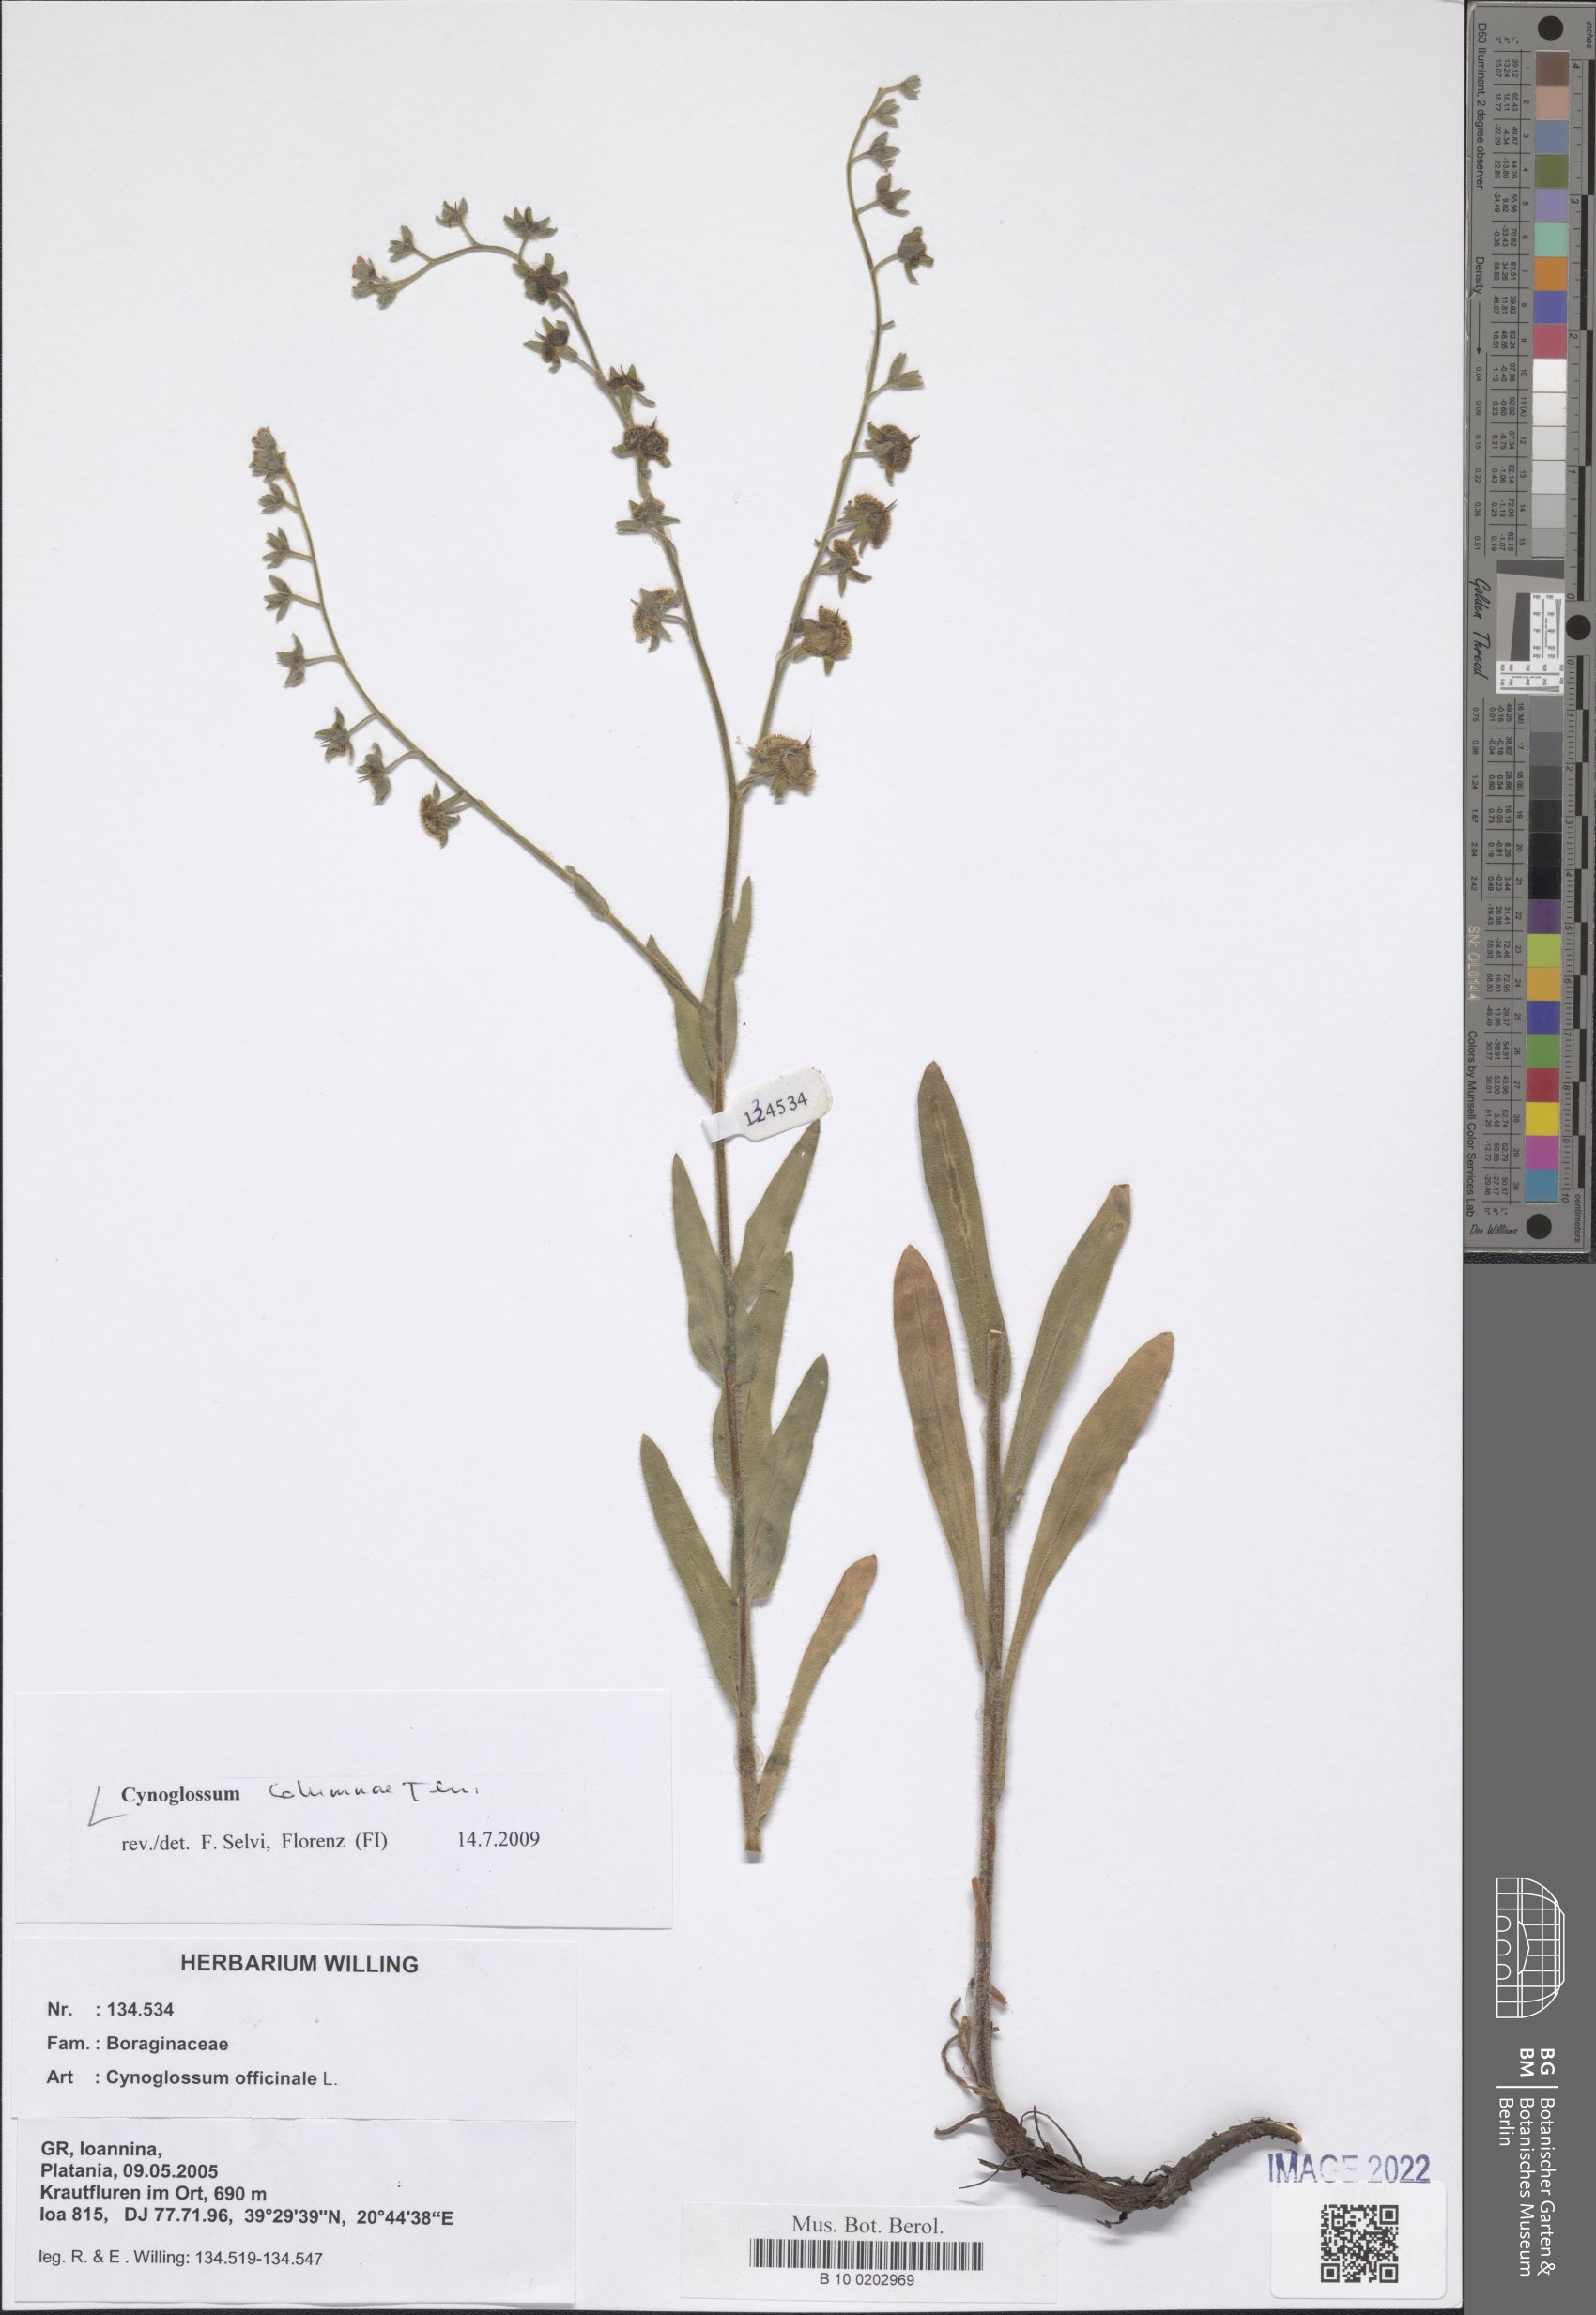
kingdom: Plantae
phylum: Tracheophyta
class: Magnoliopsida
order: Boraginales
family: Boraginaceae
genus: Rindera
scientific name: Rindera columnae
